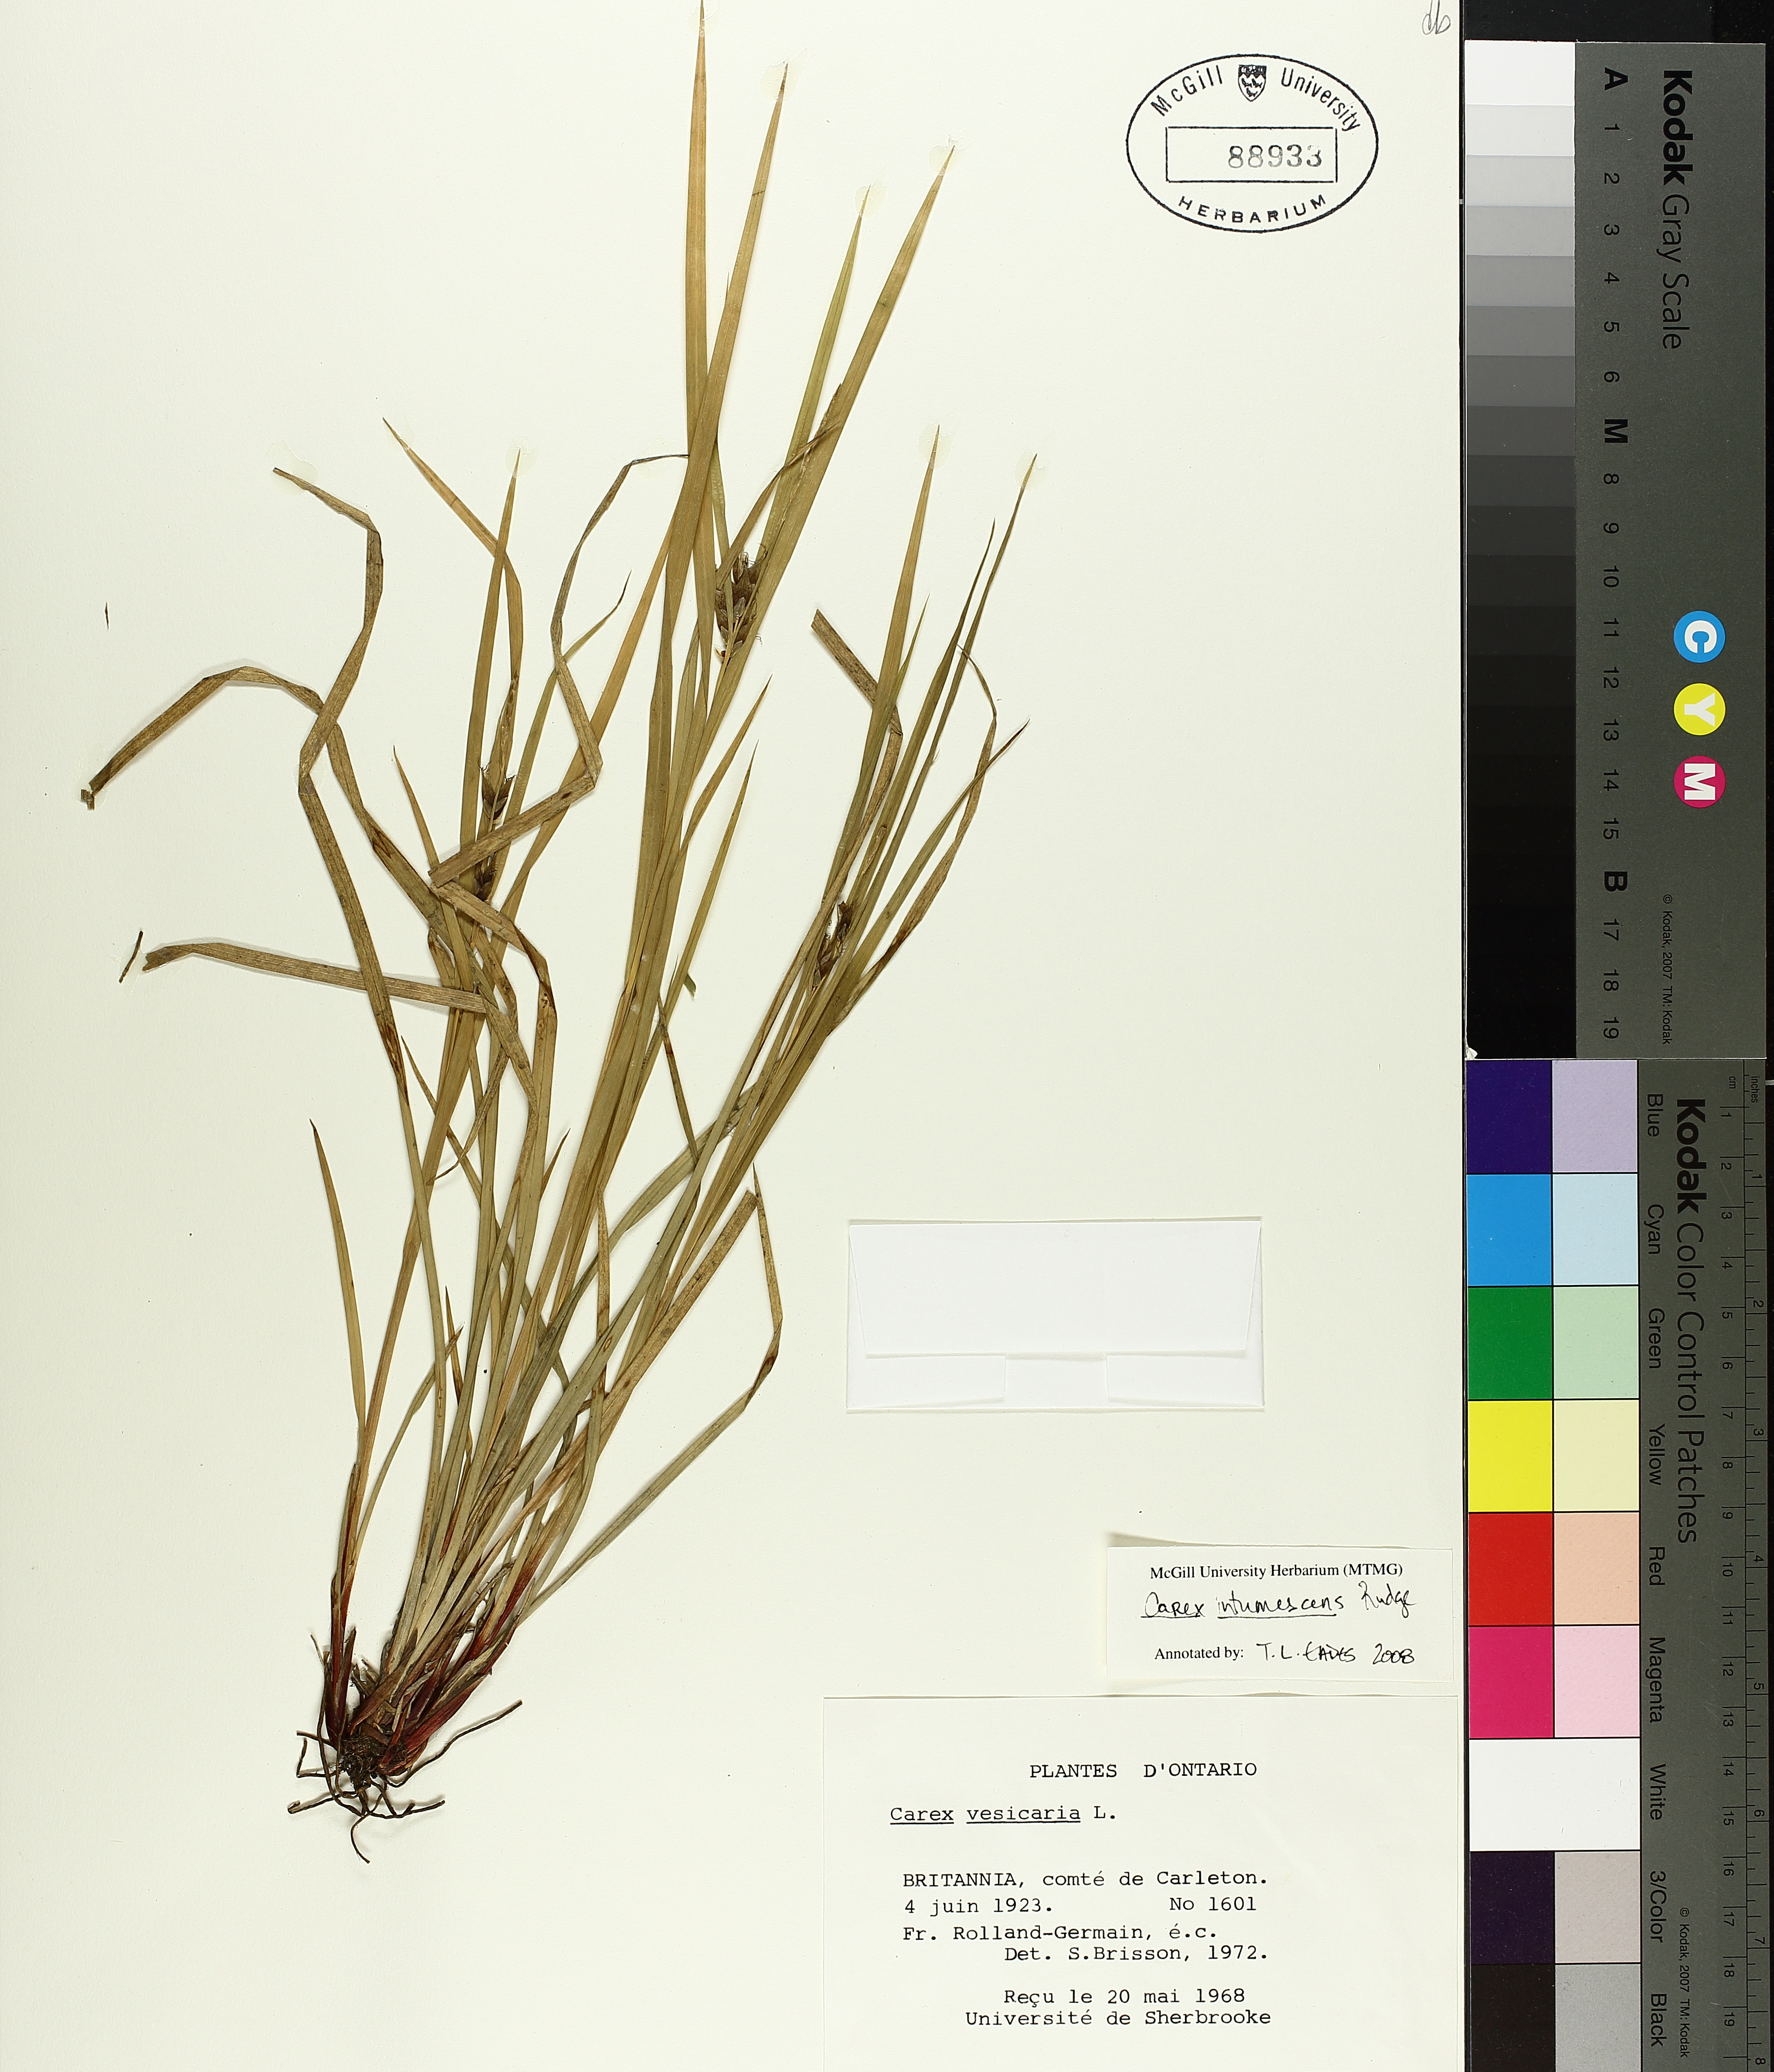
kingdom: Plantae
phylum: Tracheophyta
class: Liliopsida
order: Poales
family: Cyperaceae
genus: Carex
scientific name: Carex vesicaria
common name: Bladder-sedge
